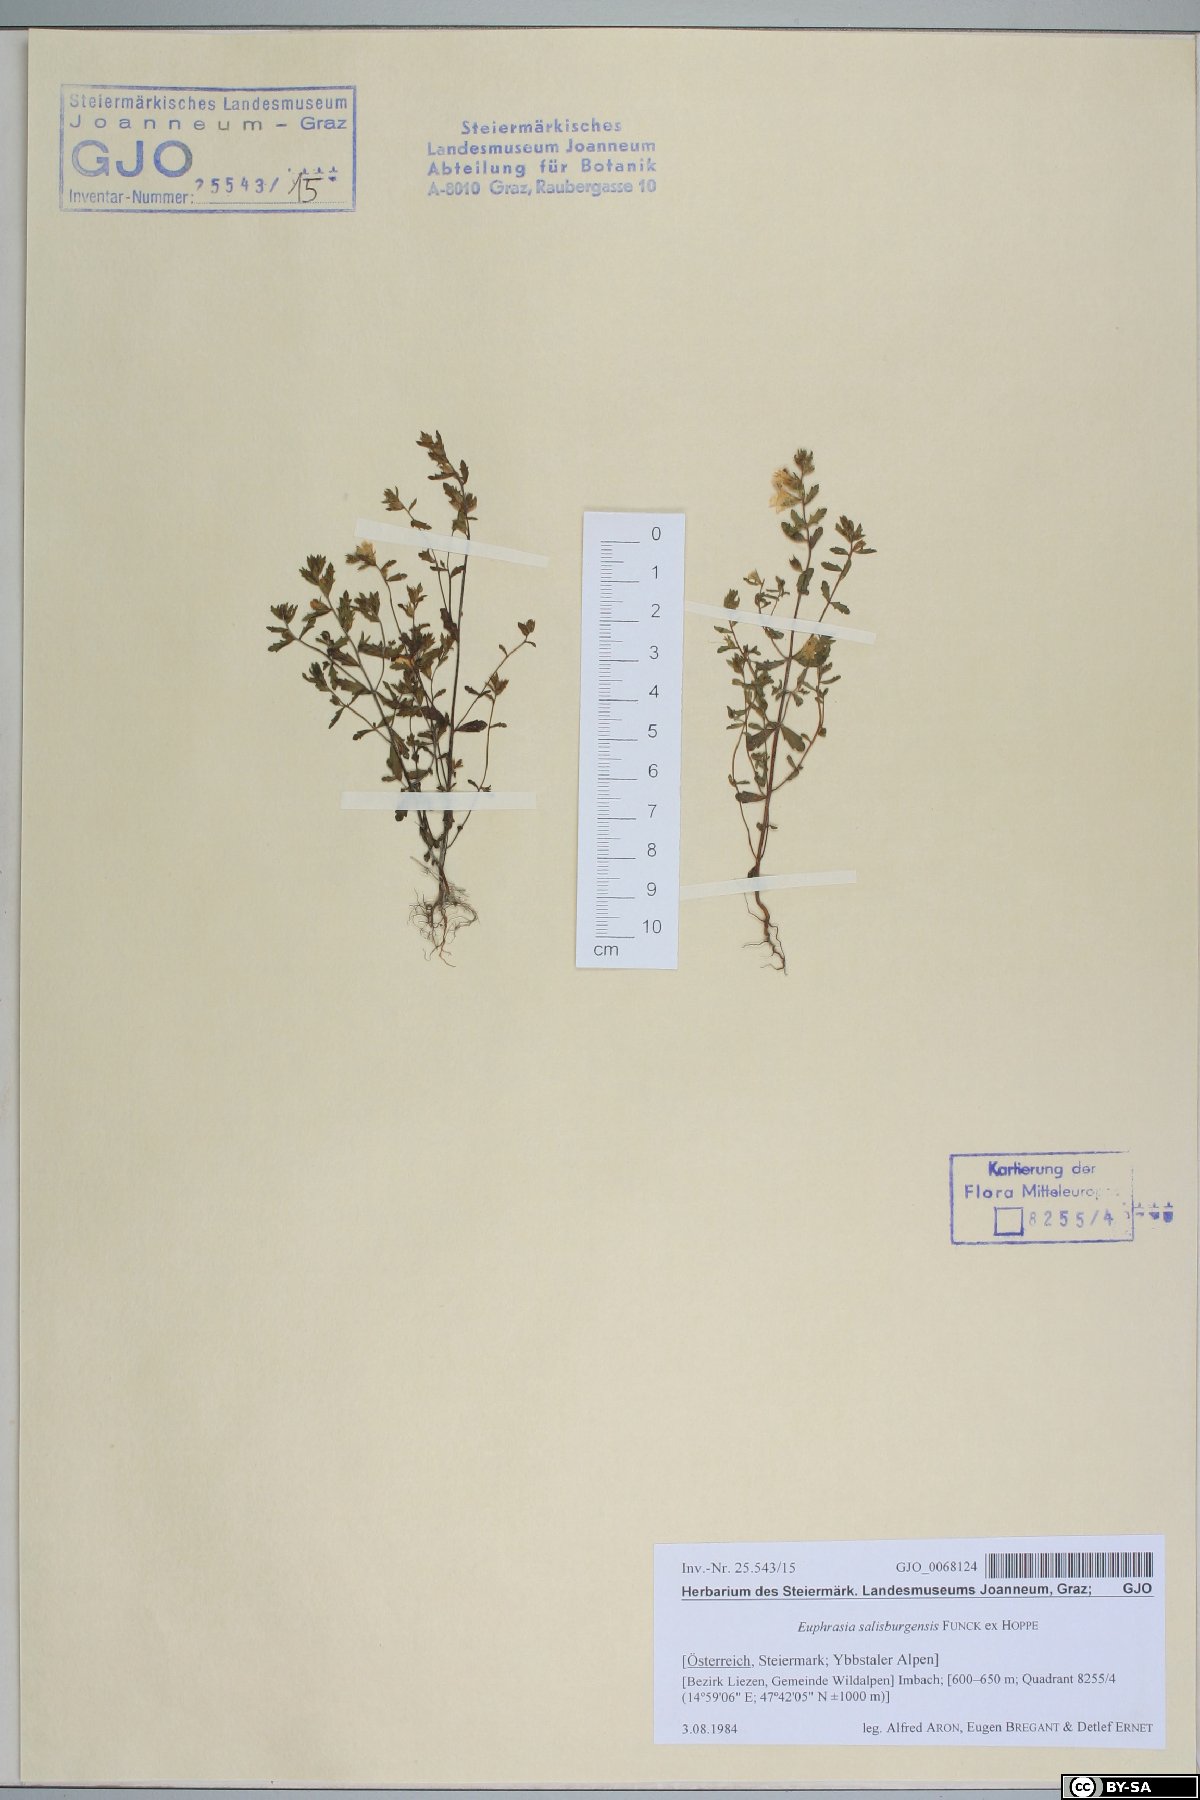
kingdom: Plantae
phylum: Tracheophyta
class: Magnoliopsida
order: Lamiales
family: Orobanchaceae
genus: Euphrasia
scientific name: Euphrasia salisburgensis
